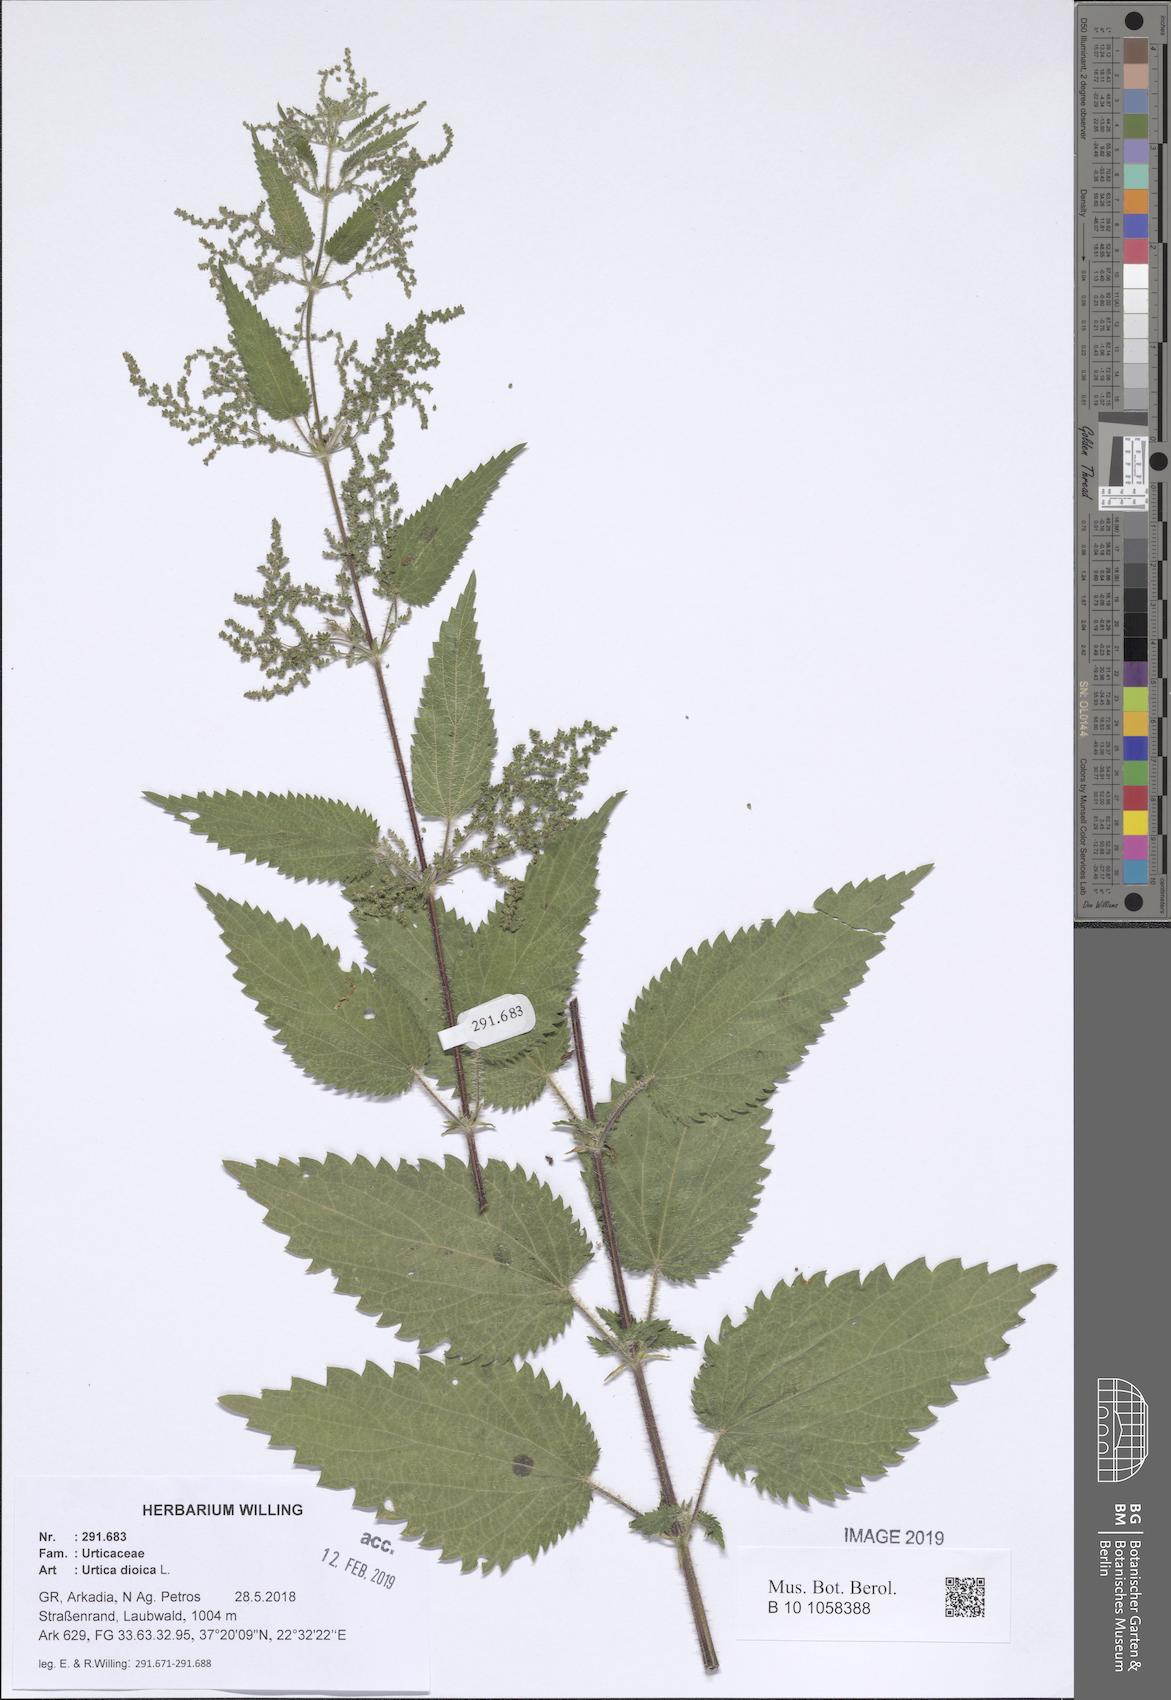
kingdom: Plantae
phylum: Tracheophyta
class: Magnoliopsida
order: Rosales
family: Urticaceae
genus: Urtica
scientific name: Urtica dioica
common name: Common nettle
